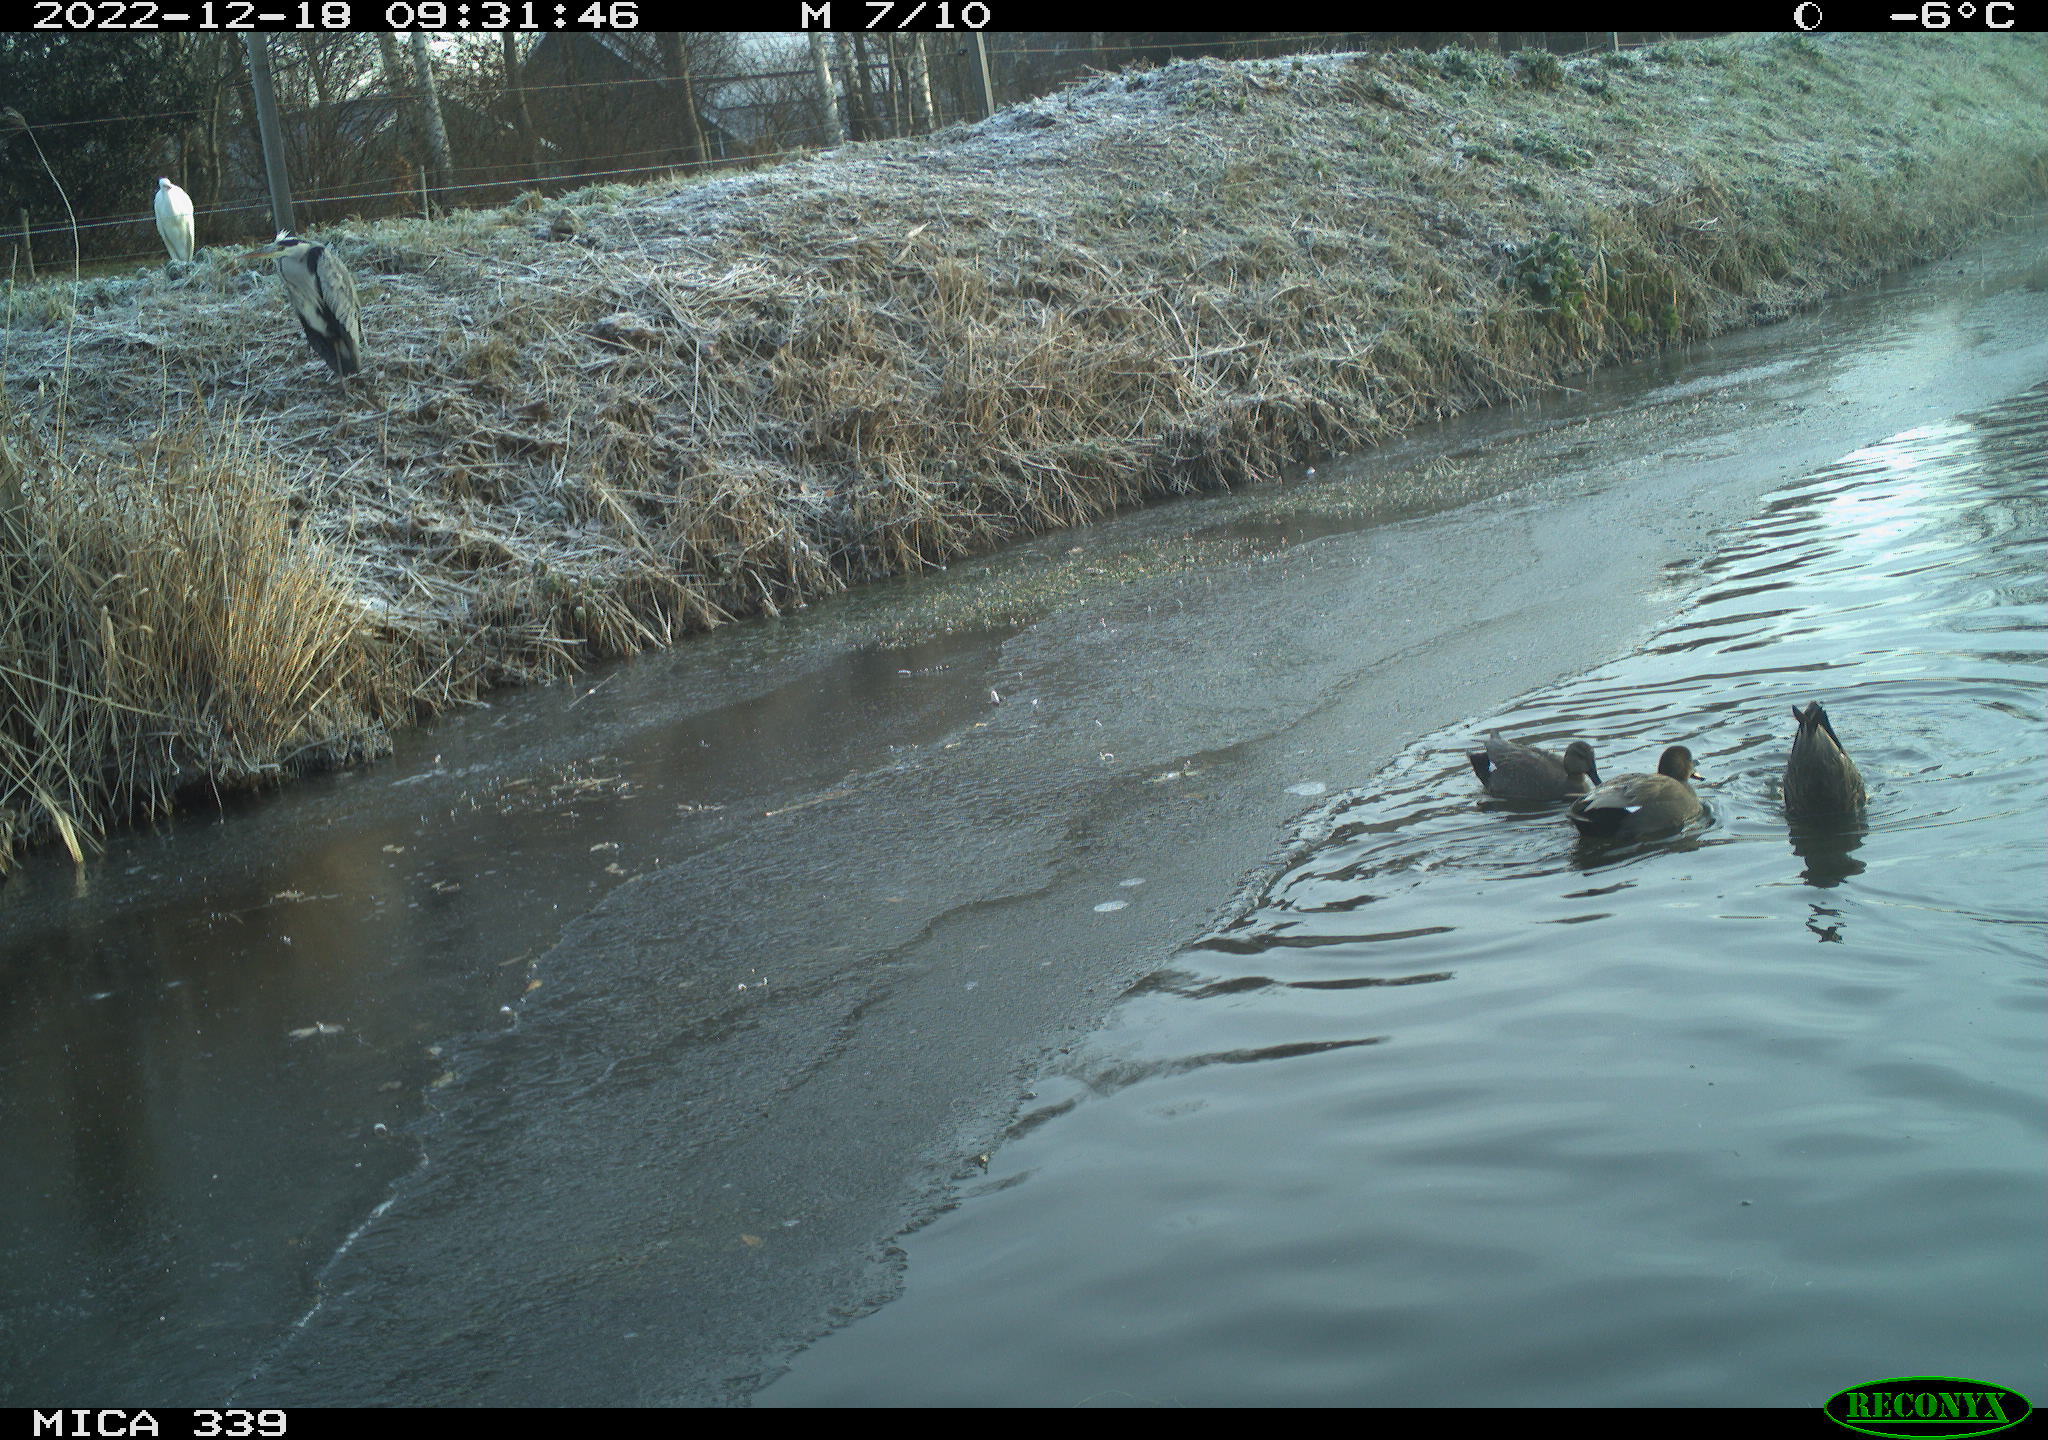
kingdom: Animalia
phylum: Chordata
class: Aves
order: Gruiformes
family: Rallidae
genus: Gallinula
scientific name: Gallinula chloropus
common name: Common moorhen
